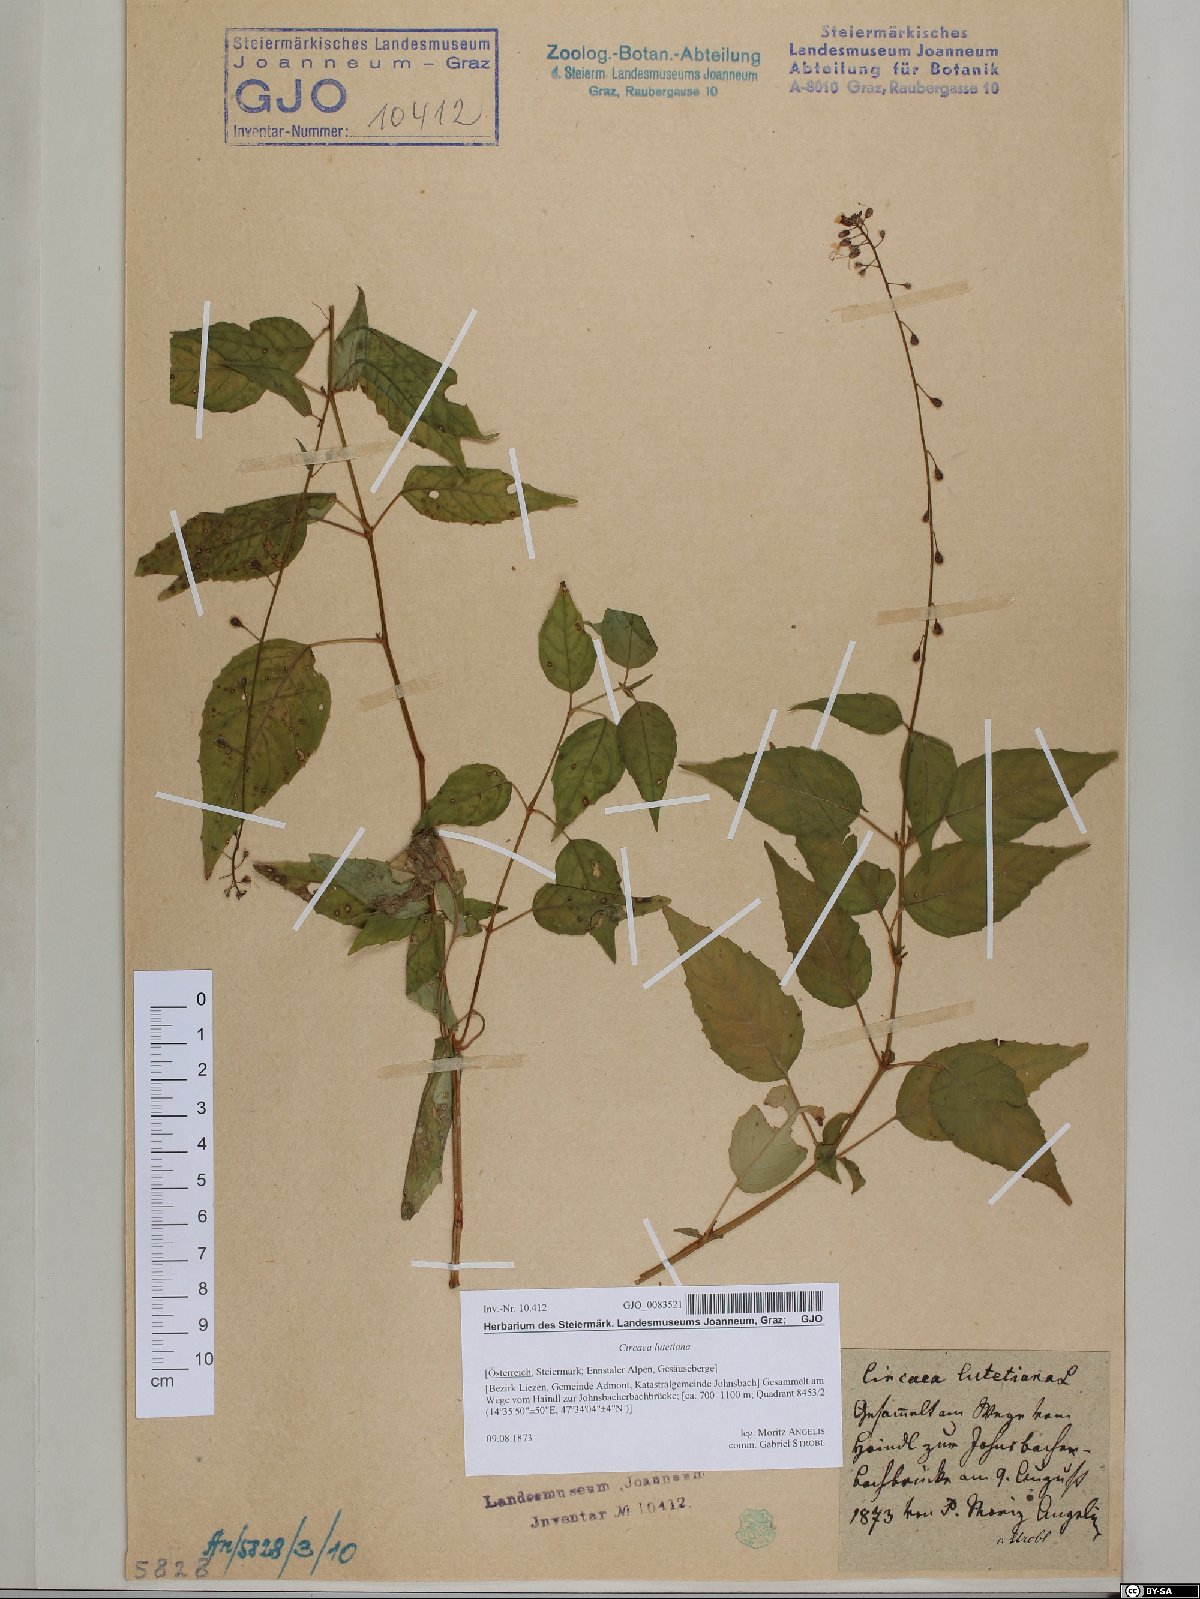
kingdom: Plantae
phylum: Tracheophyta
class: Magnoliopsida
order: Myrtales
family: Onagraceae
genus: Circaea
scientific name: Circaea lutetiana
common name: Enchanter's-nightshade
